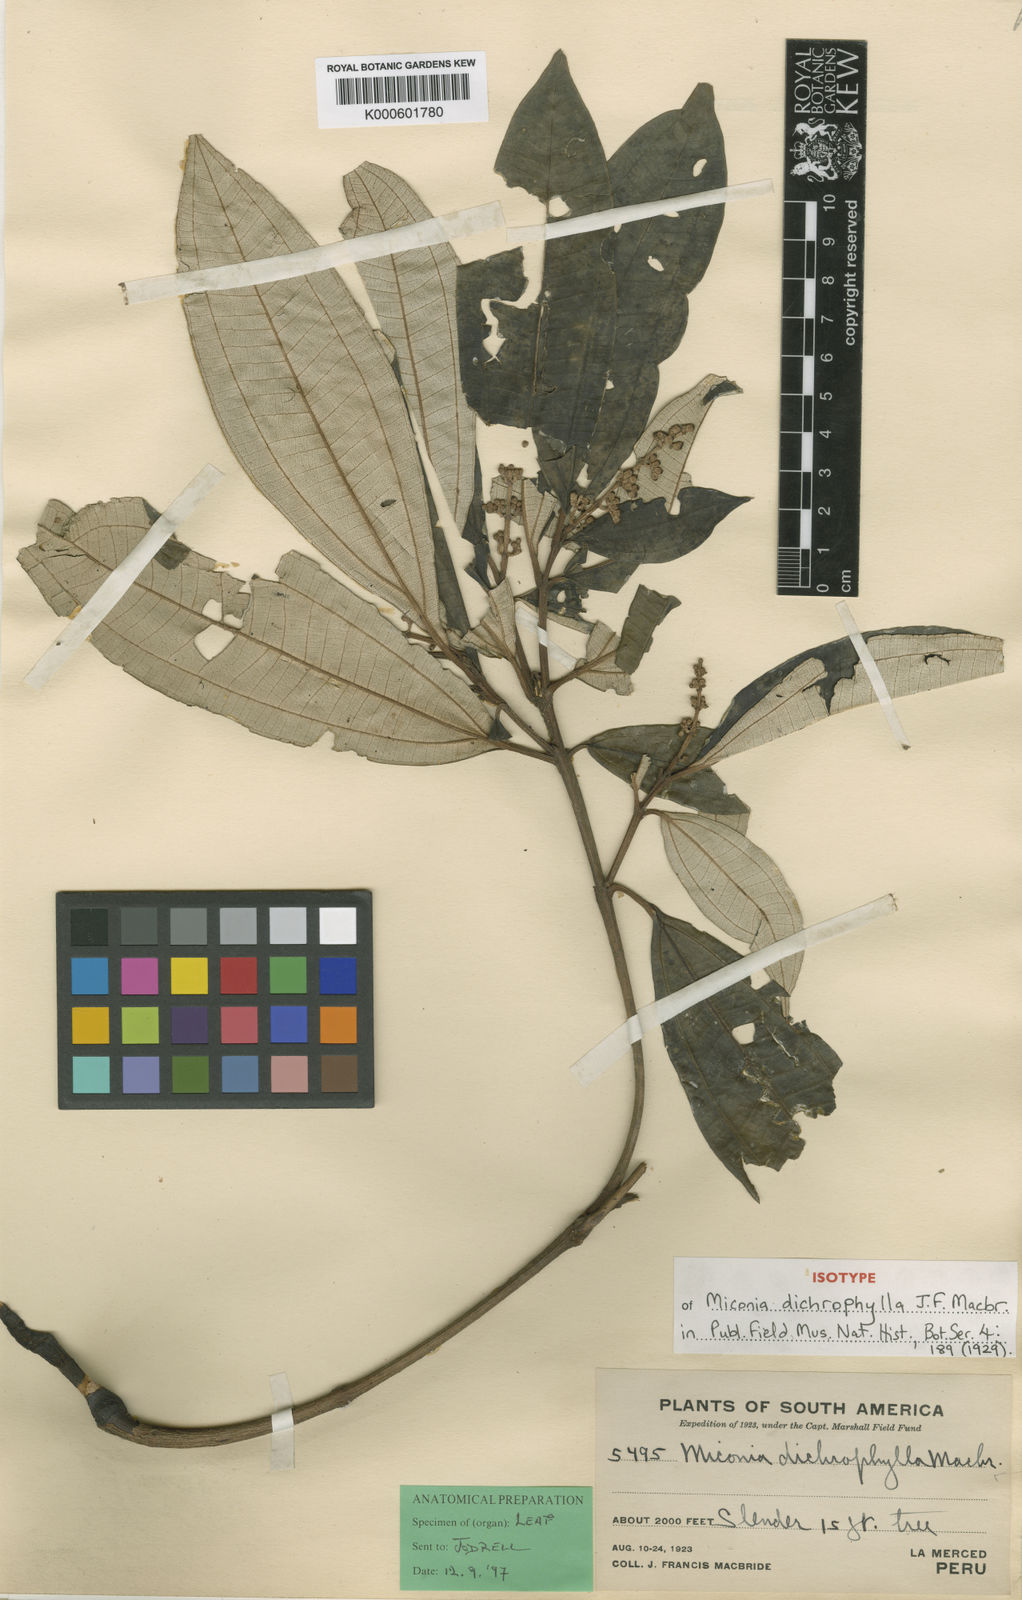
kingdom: Plantae
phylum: Tracheophyta
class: Magnoliopsida
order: Myrtales
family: Melastomataceae
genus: Miconia
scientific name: Miconia dichrophylla
